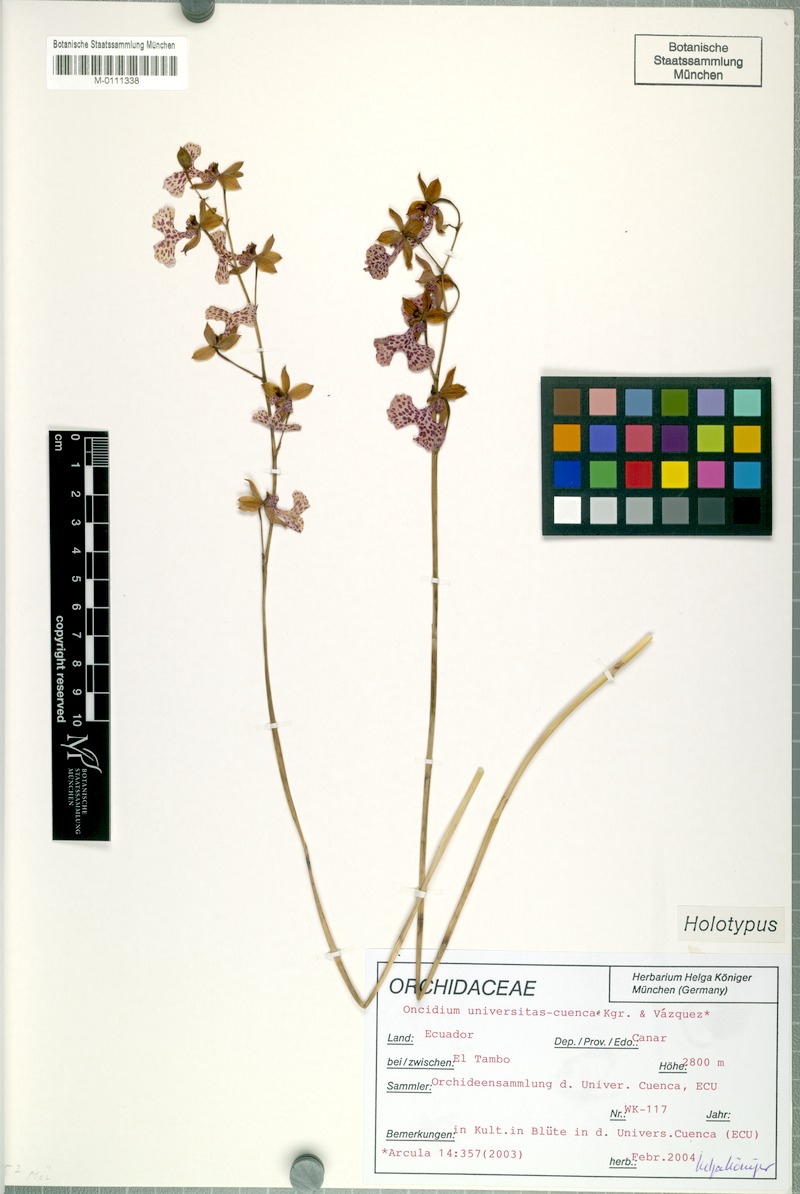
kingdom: Plantae
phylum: Tracheophyta
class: Liliopsida
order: Asparagales
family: Orchidaceae
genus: Oncidium
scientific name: Oncidium universitas-cuencae
